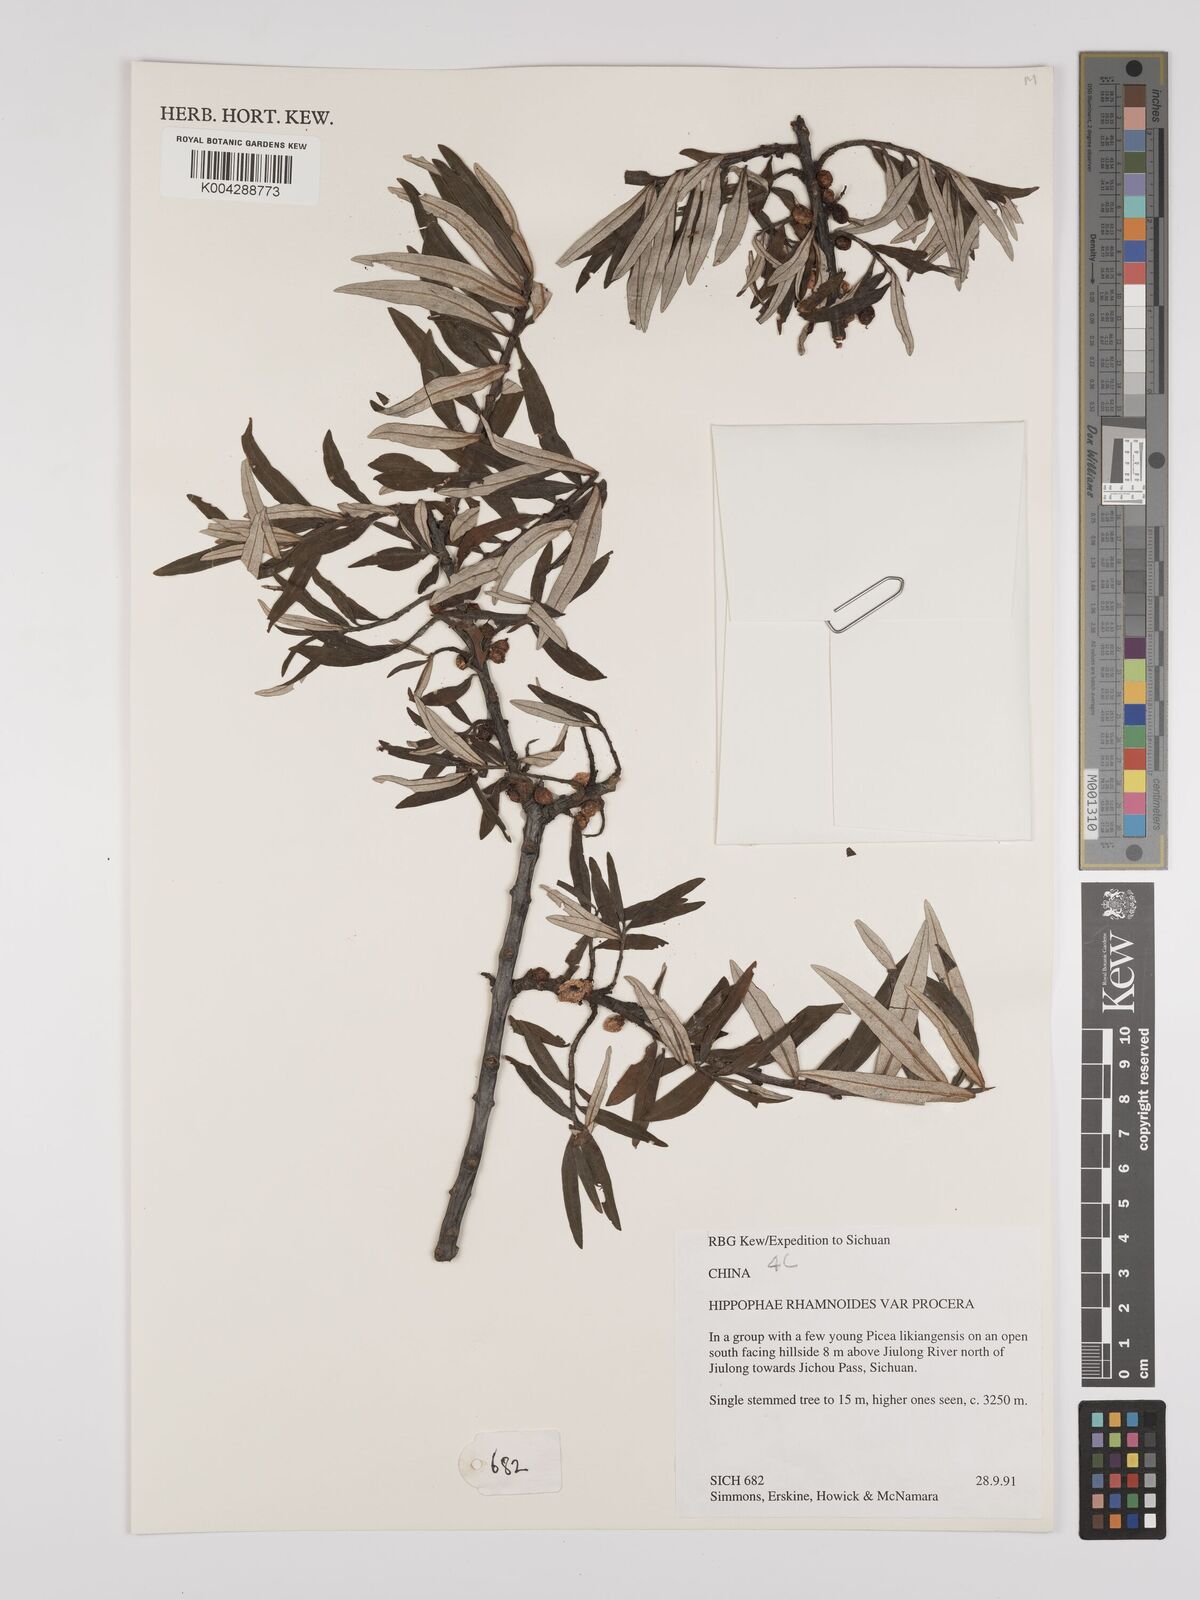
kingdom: Plantae
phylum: Tracheophyta
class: Magnoliopsida
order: Rosales
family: Elaeagnaceae
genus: Hippophae
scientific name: Hippophae rhamnoides
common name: Sea-buckthorn
